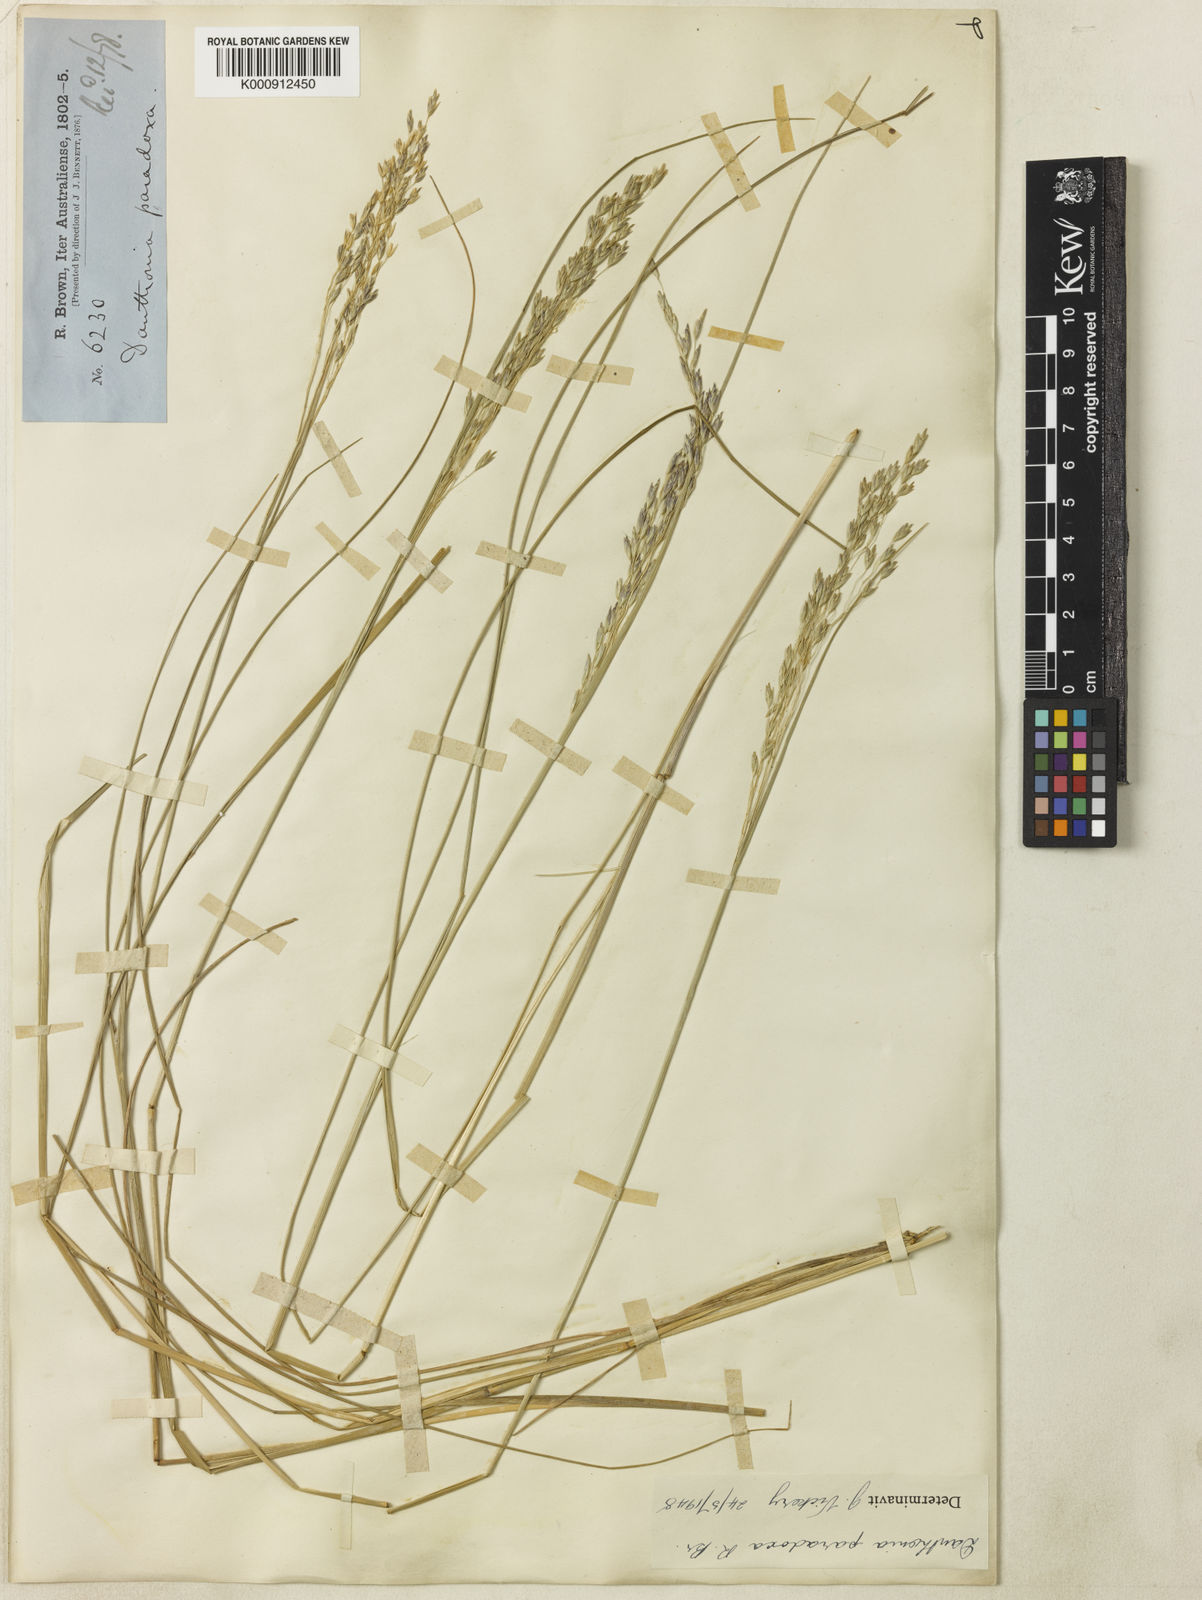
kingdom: Plantae
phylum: Tracheophyta
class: Liliopsida
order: Poales
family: Poaceae
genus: Plinthanthesis
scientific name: Plinthanthesis paradoxa
